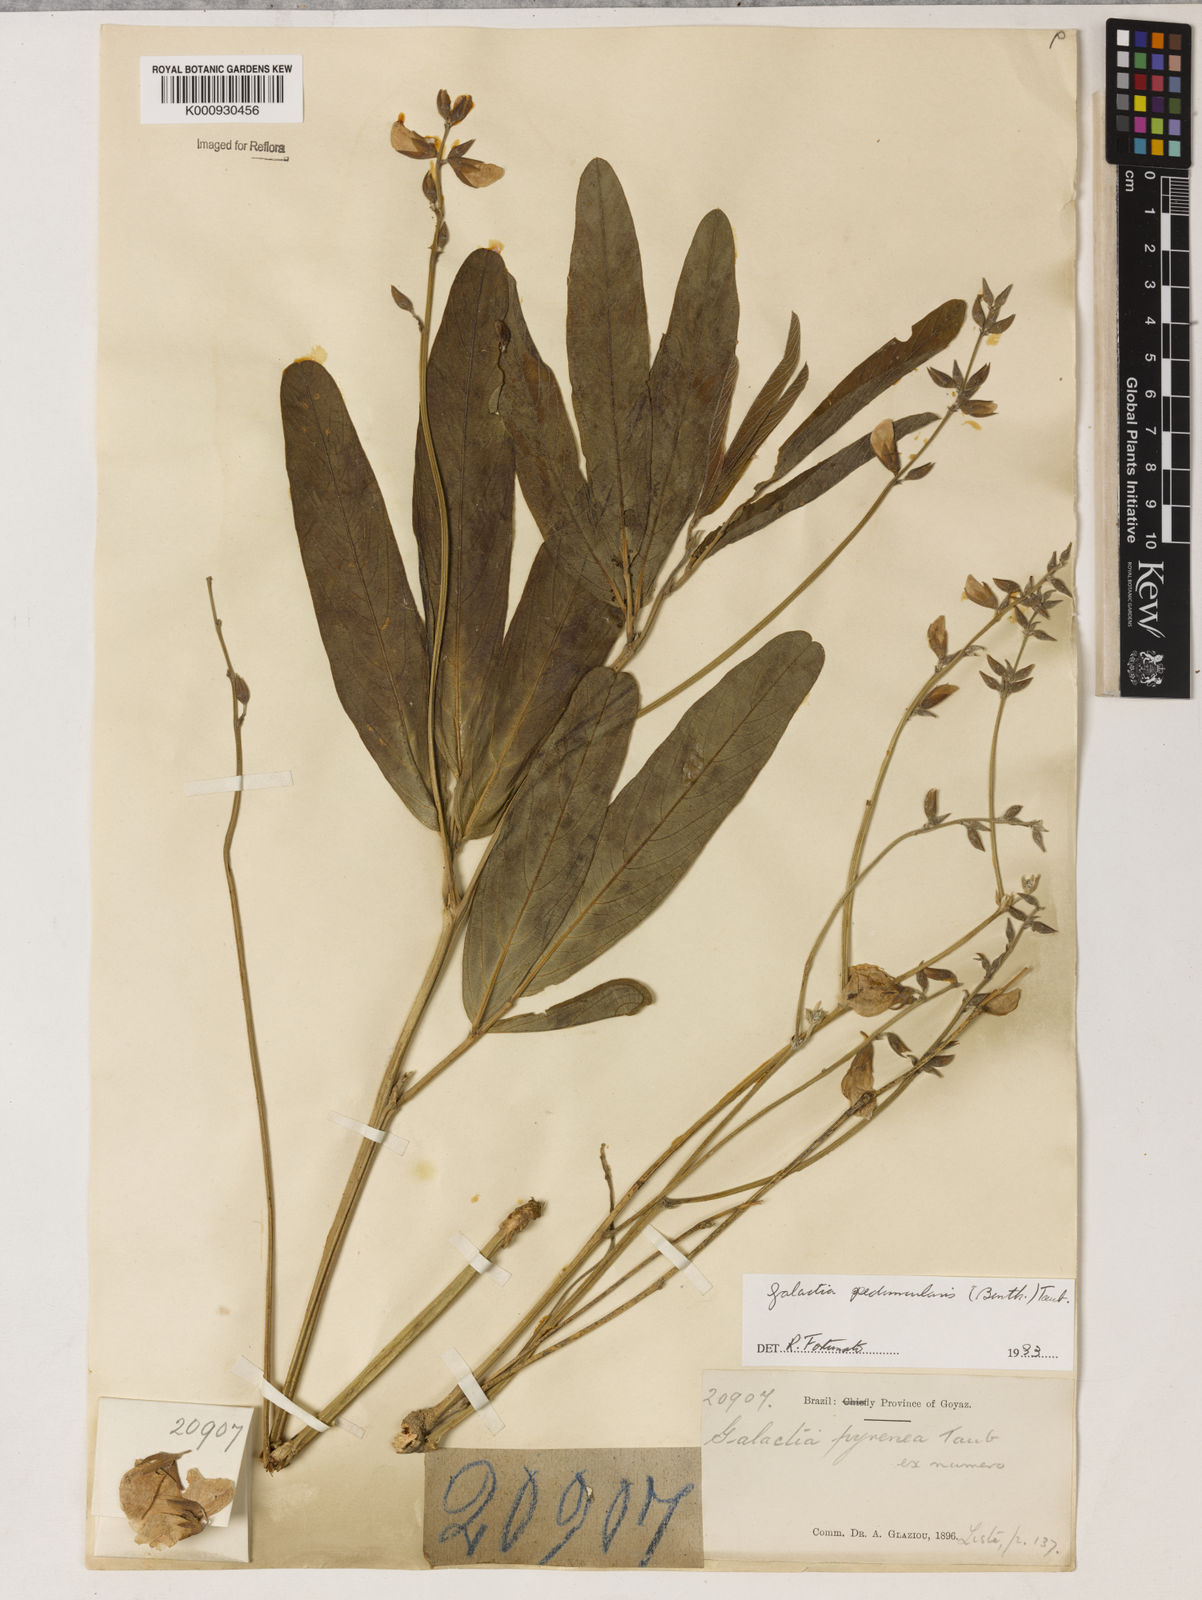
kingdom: Plantae
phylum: Tracheophyta
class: Magnoliopsida
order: Fabales
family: Fabaceae
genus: Galactia
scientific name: Galactia
